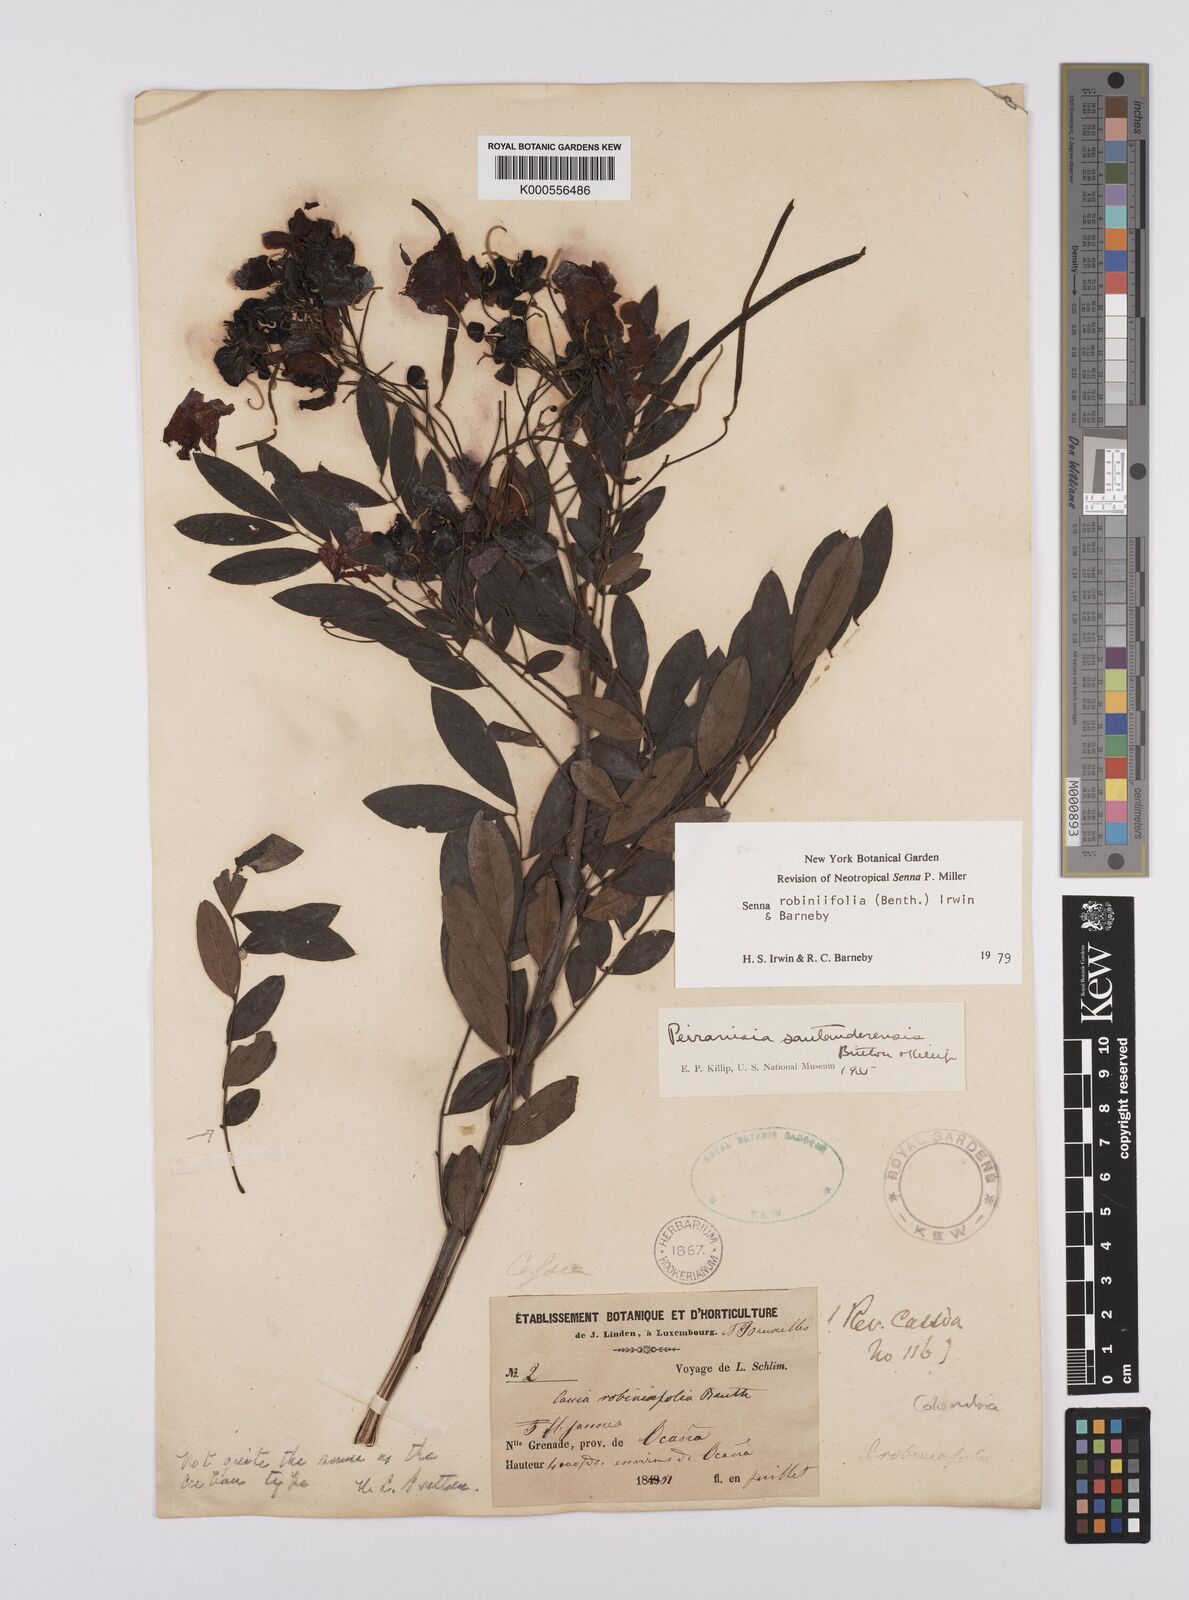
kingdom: Plantae
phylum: Tracheophyta
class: Magnoliopsida
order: Fabales
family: Fabaceae
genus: Senna
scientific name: Senna robiniifolia
